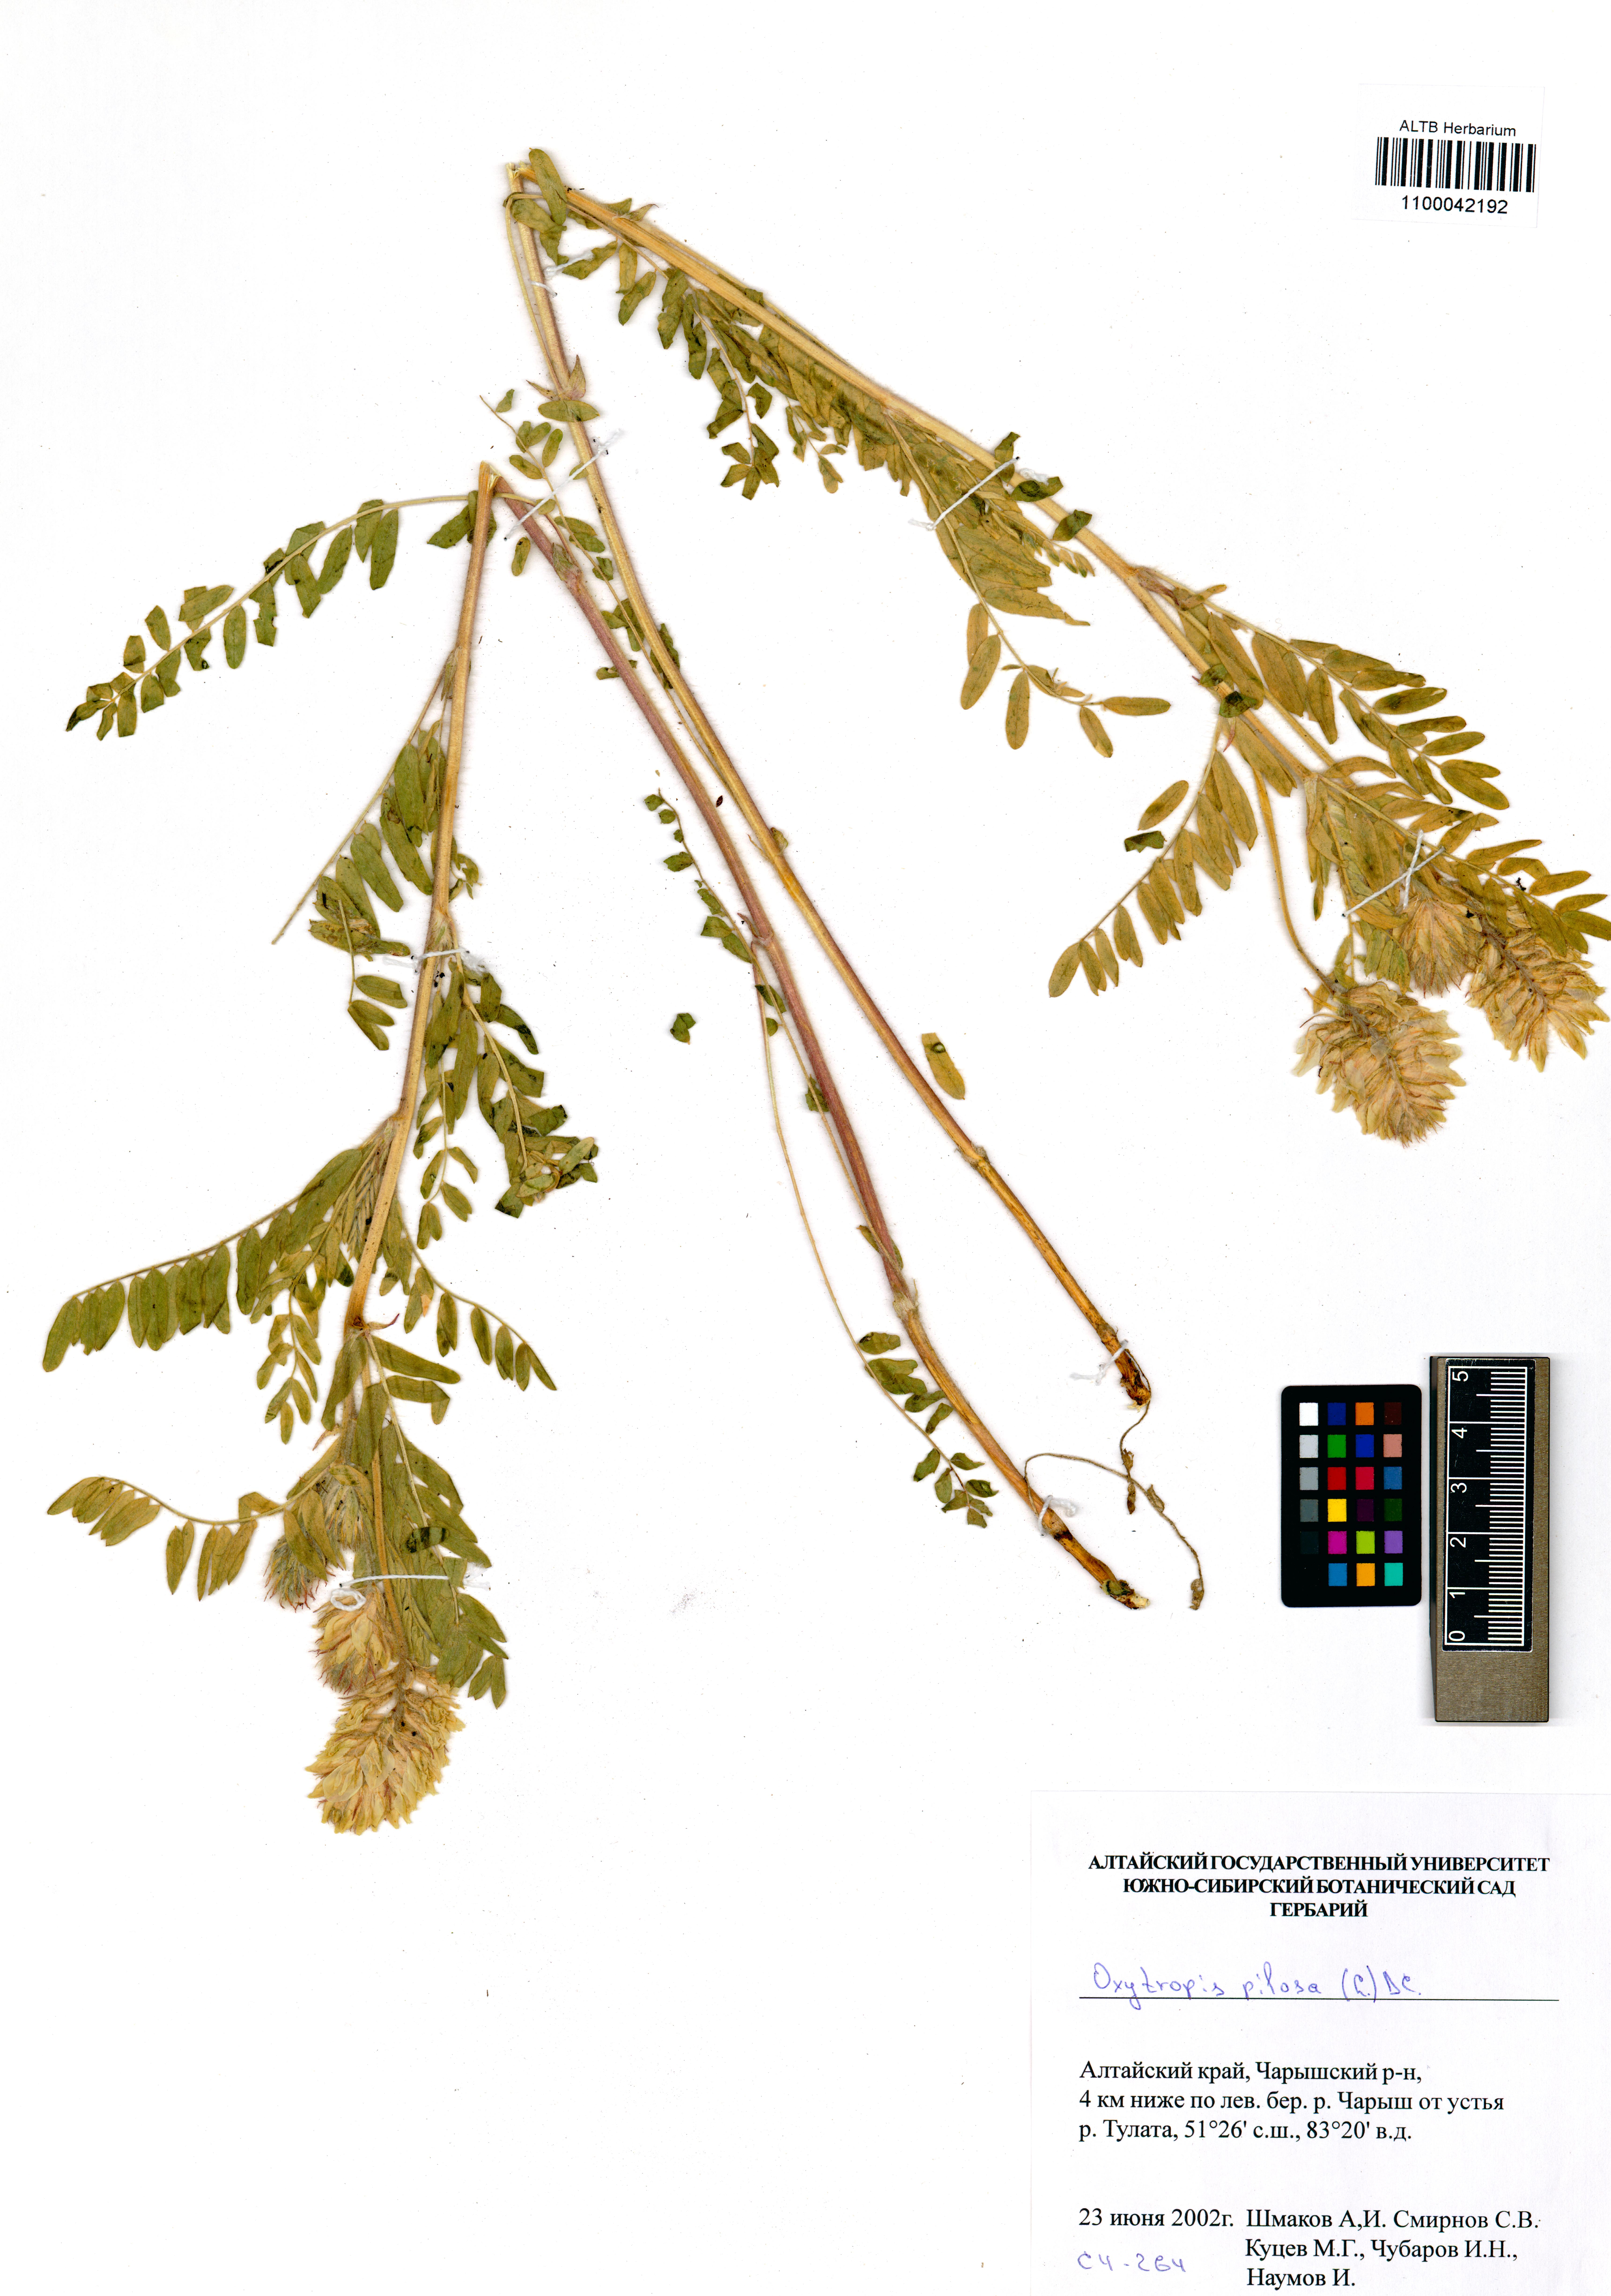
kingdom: Plantae
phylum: Tracheophyta
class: Magnoliopsida
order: Fabales
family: Fabaceae
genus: Oxytropis
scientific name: Oxytropis pilosa
